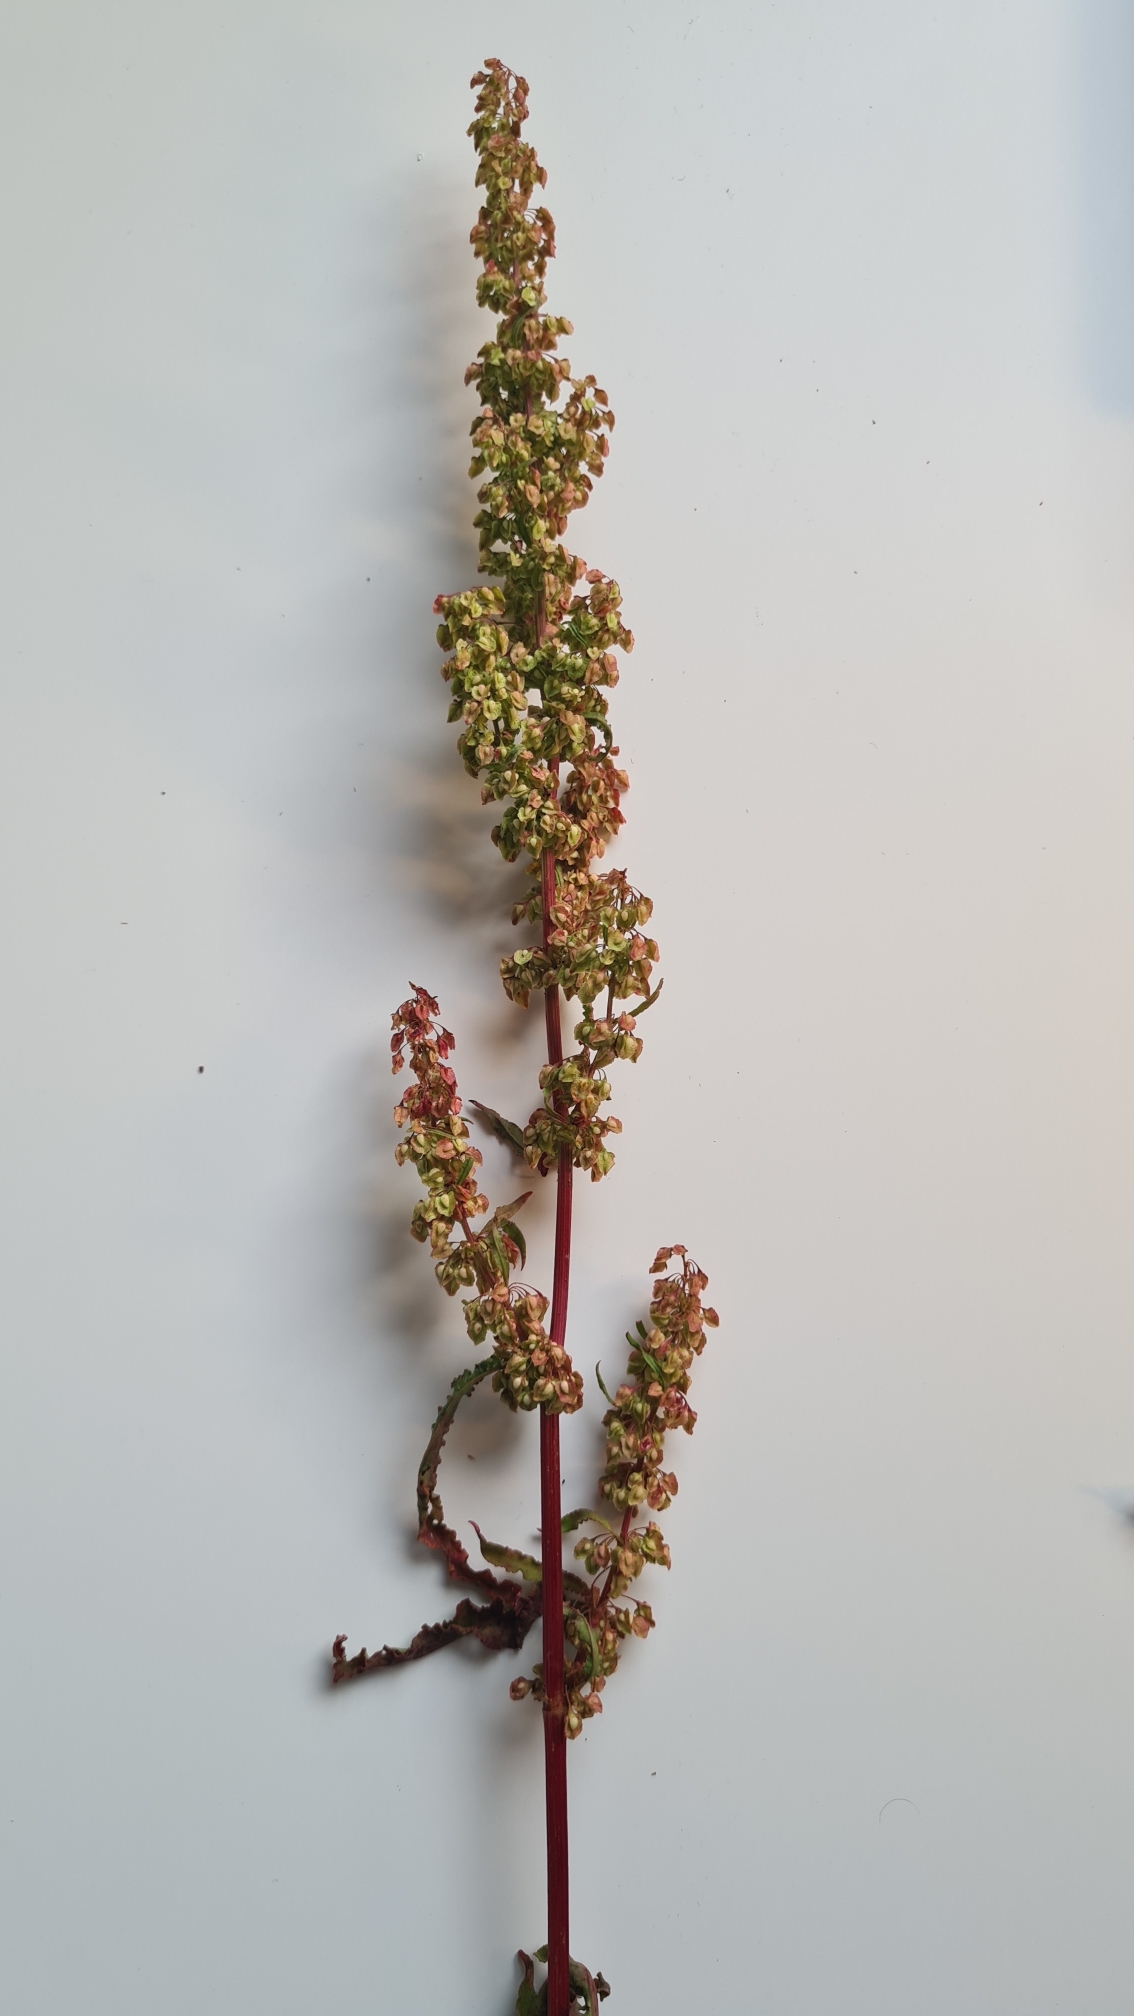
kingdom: Plantae
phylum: Tracheophyta
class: Magnoliopsida
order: Caryophyllales
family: Polygonaceae
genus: Rumex
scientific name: Rumex crispus
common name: Kruset skræppe
